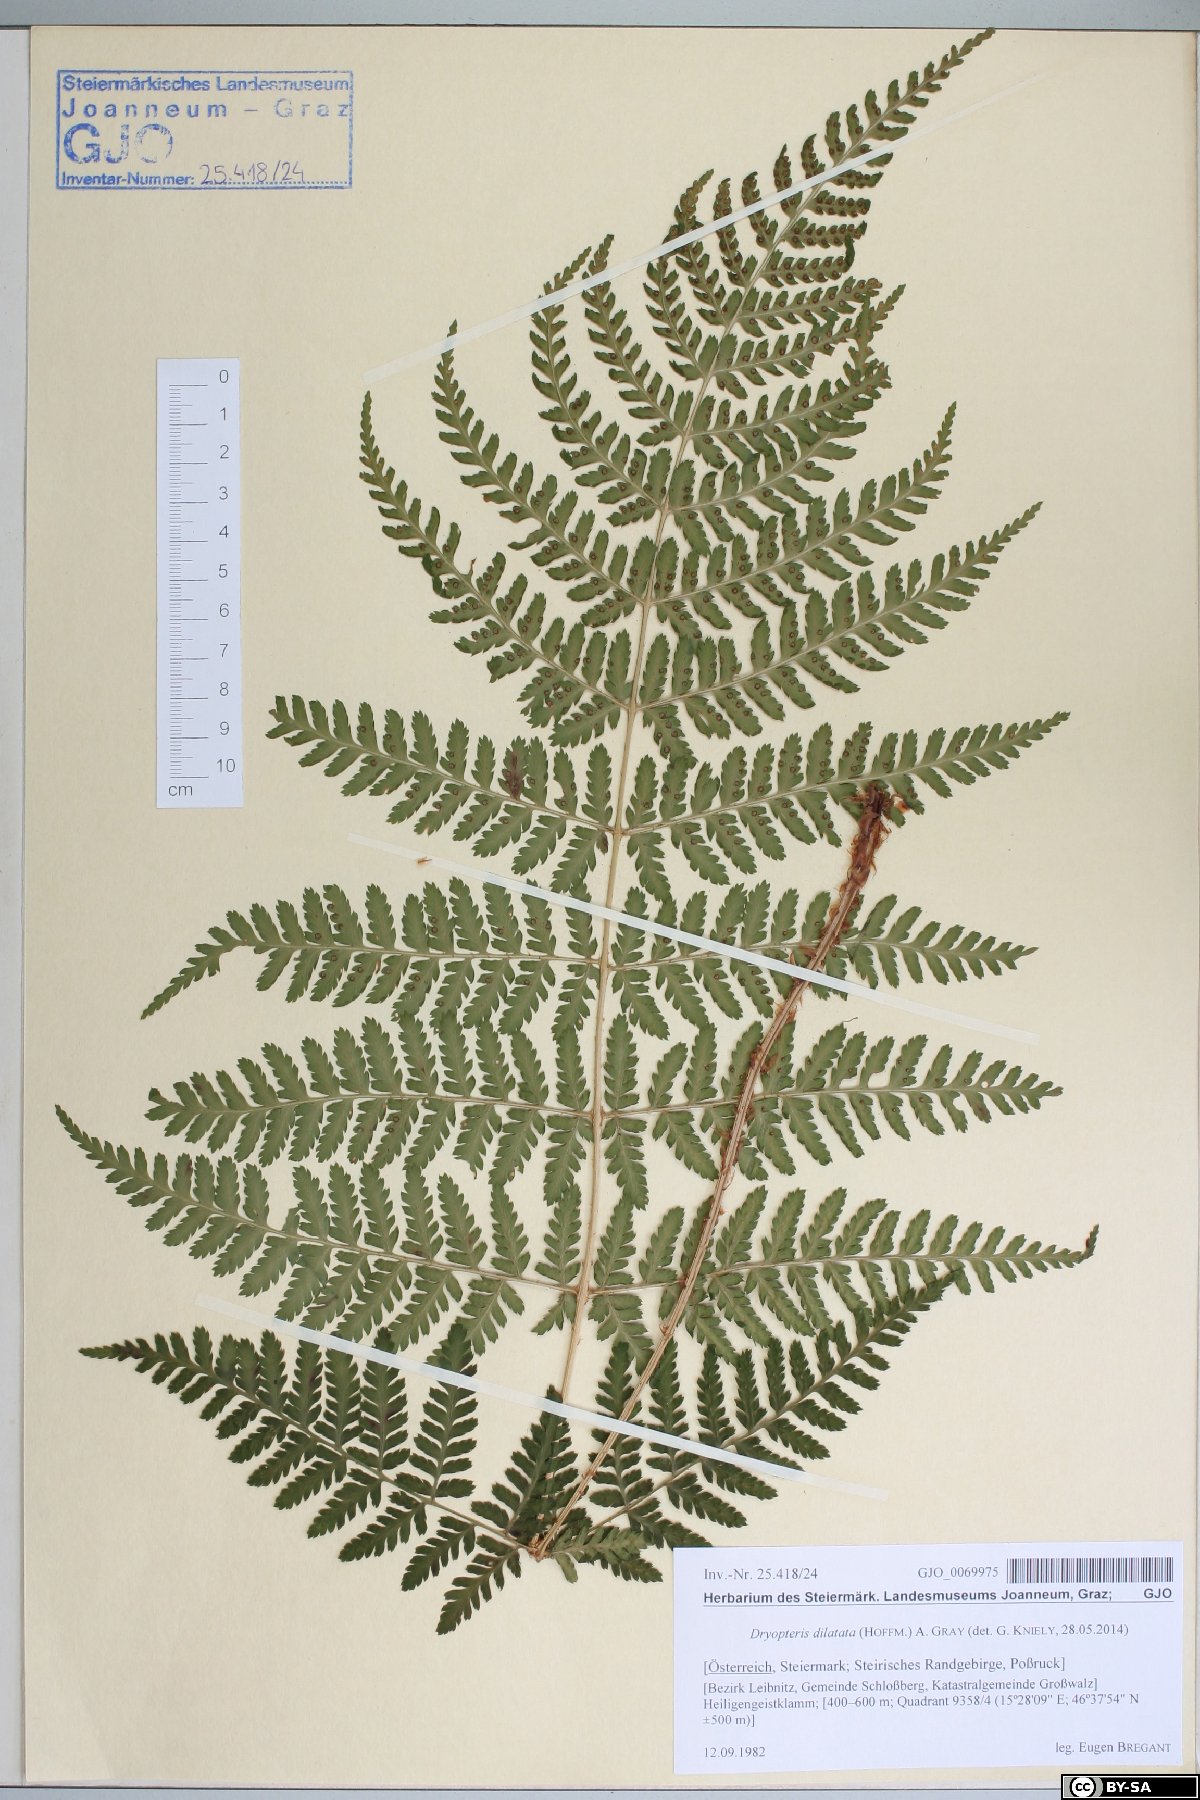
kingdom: Plantae
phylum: Tracheophyta
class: Polypodiopsida
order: Polypodiales
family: Dryopteridaceae
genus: Dryopteris
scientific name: Dryopteris dilatata
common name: Broad buckler-fern
